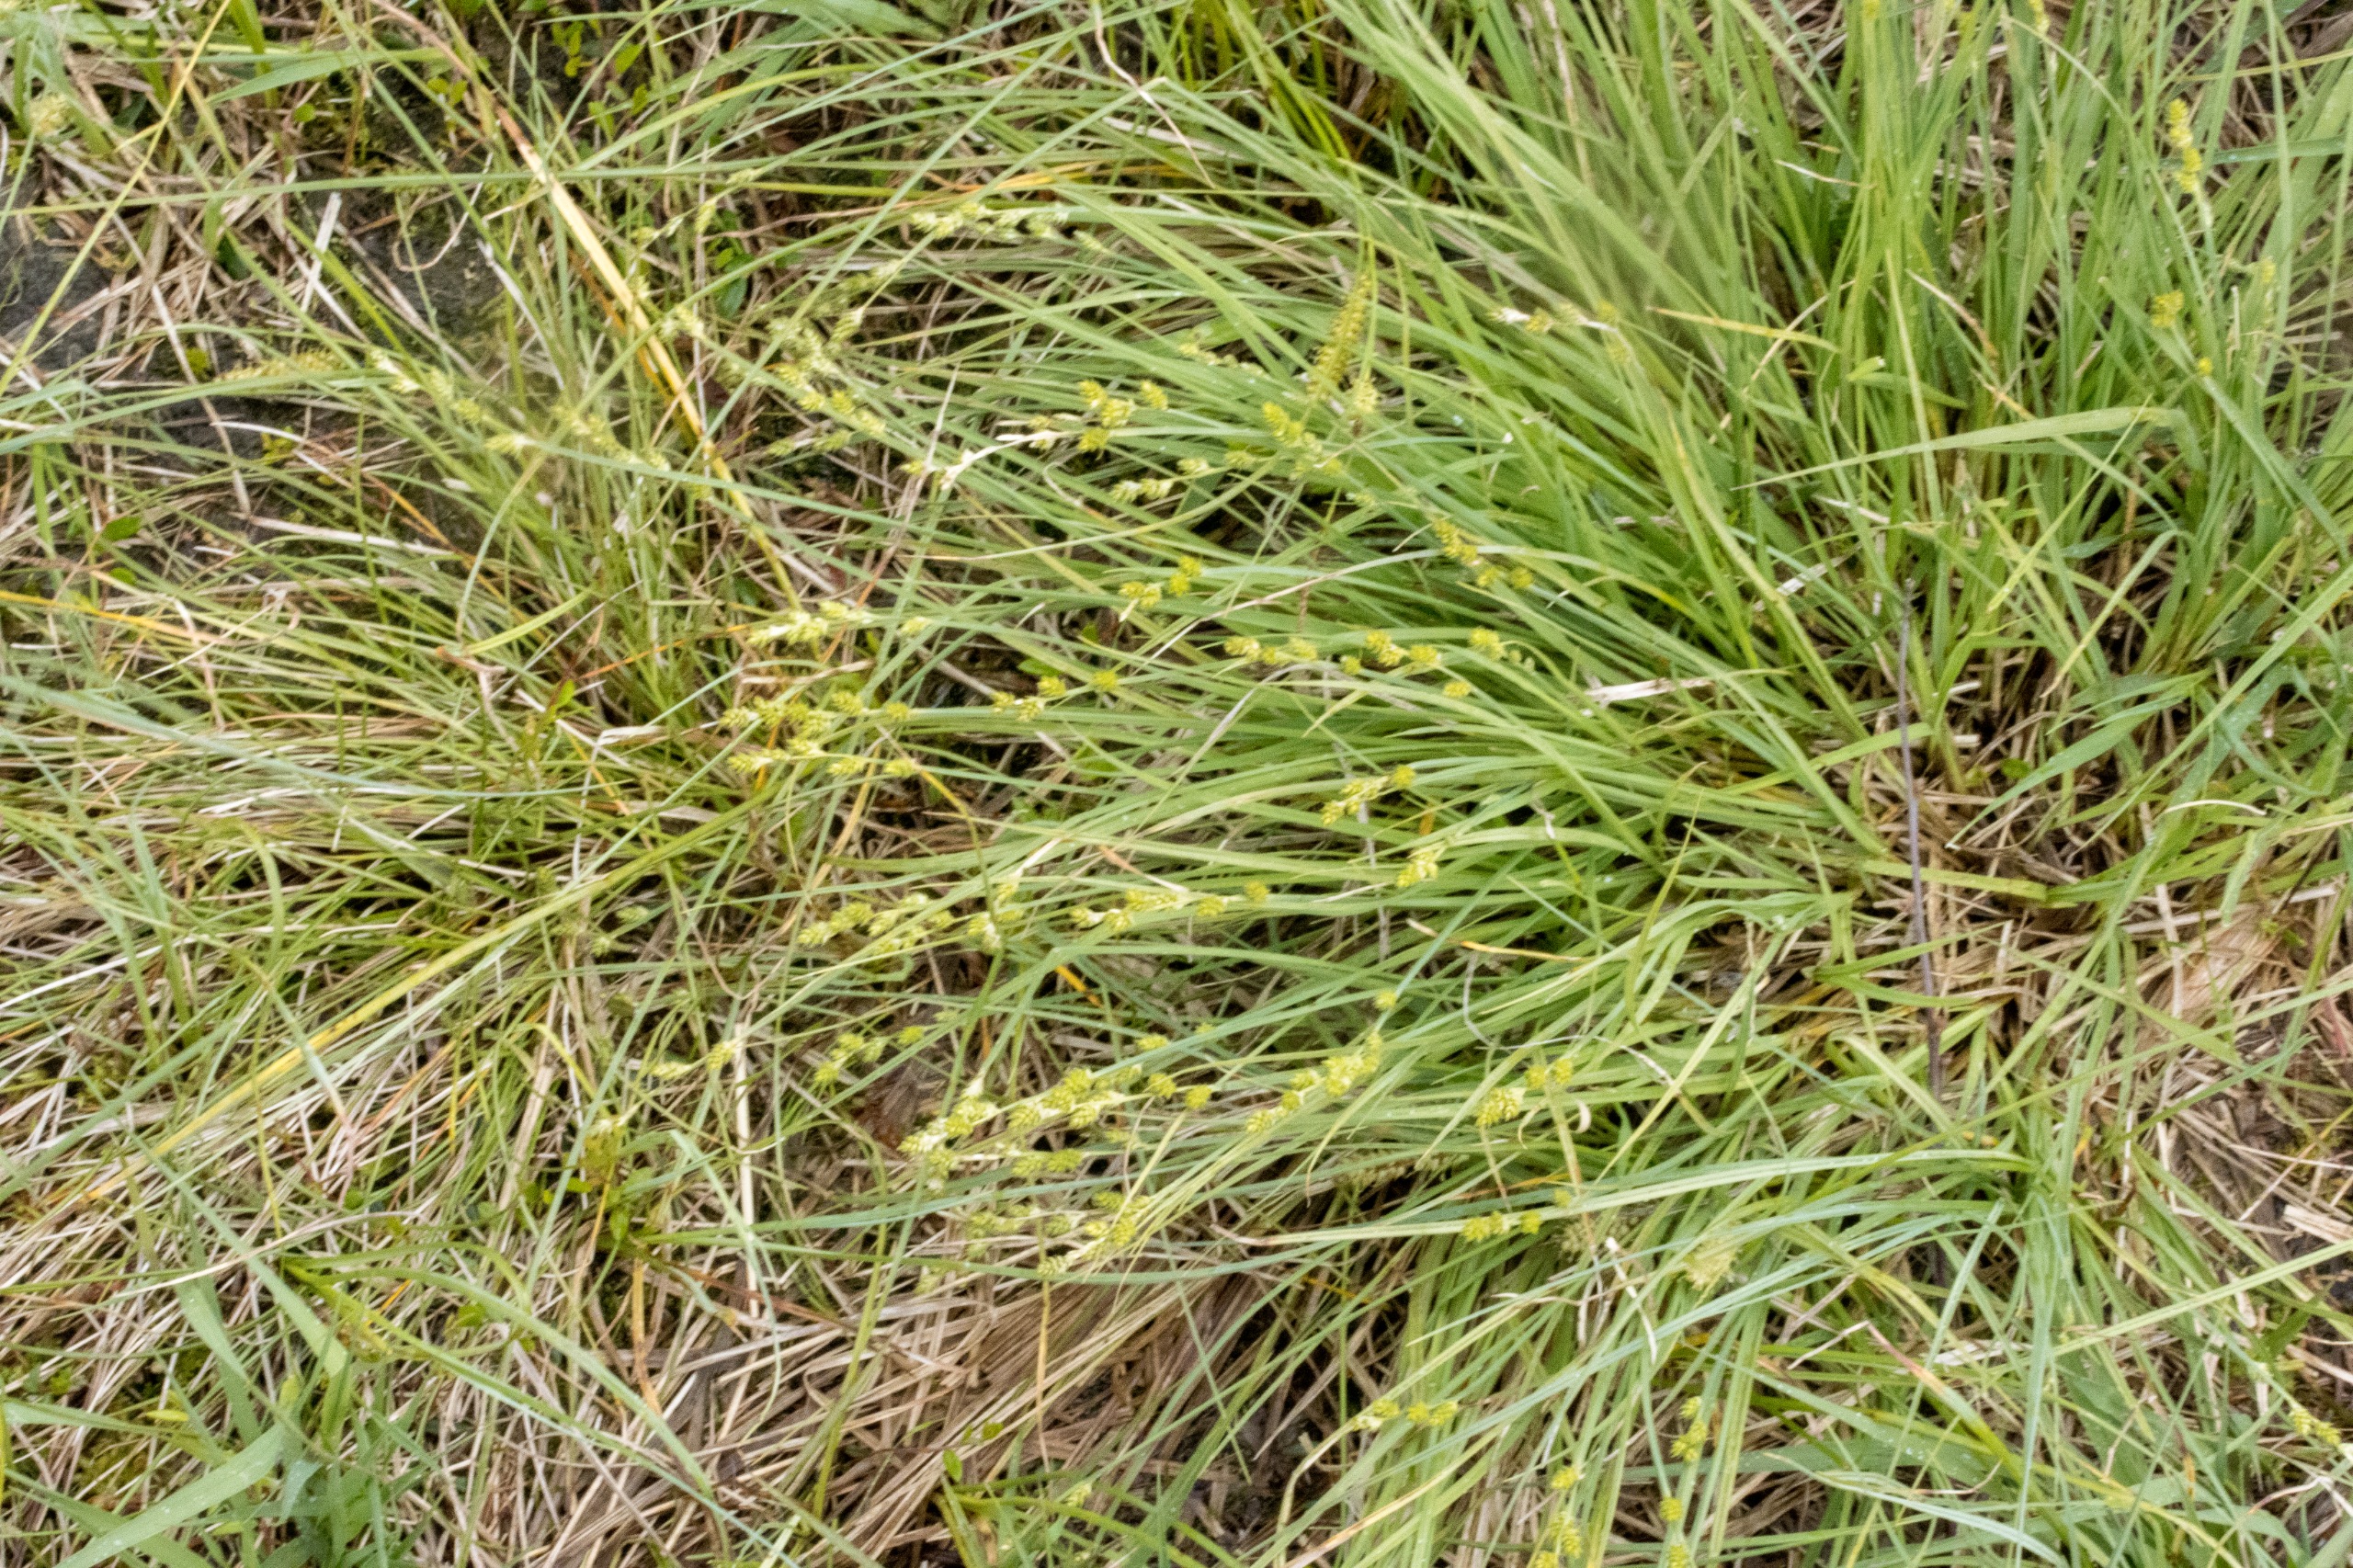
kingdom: Plantae
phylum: Tracheophyta
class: Liliopsida
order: Poales
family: Cyperaceae
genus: Carex
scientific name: Carex canescens
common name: Grå star
